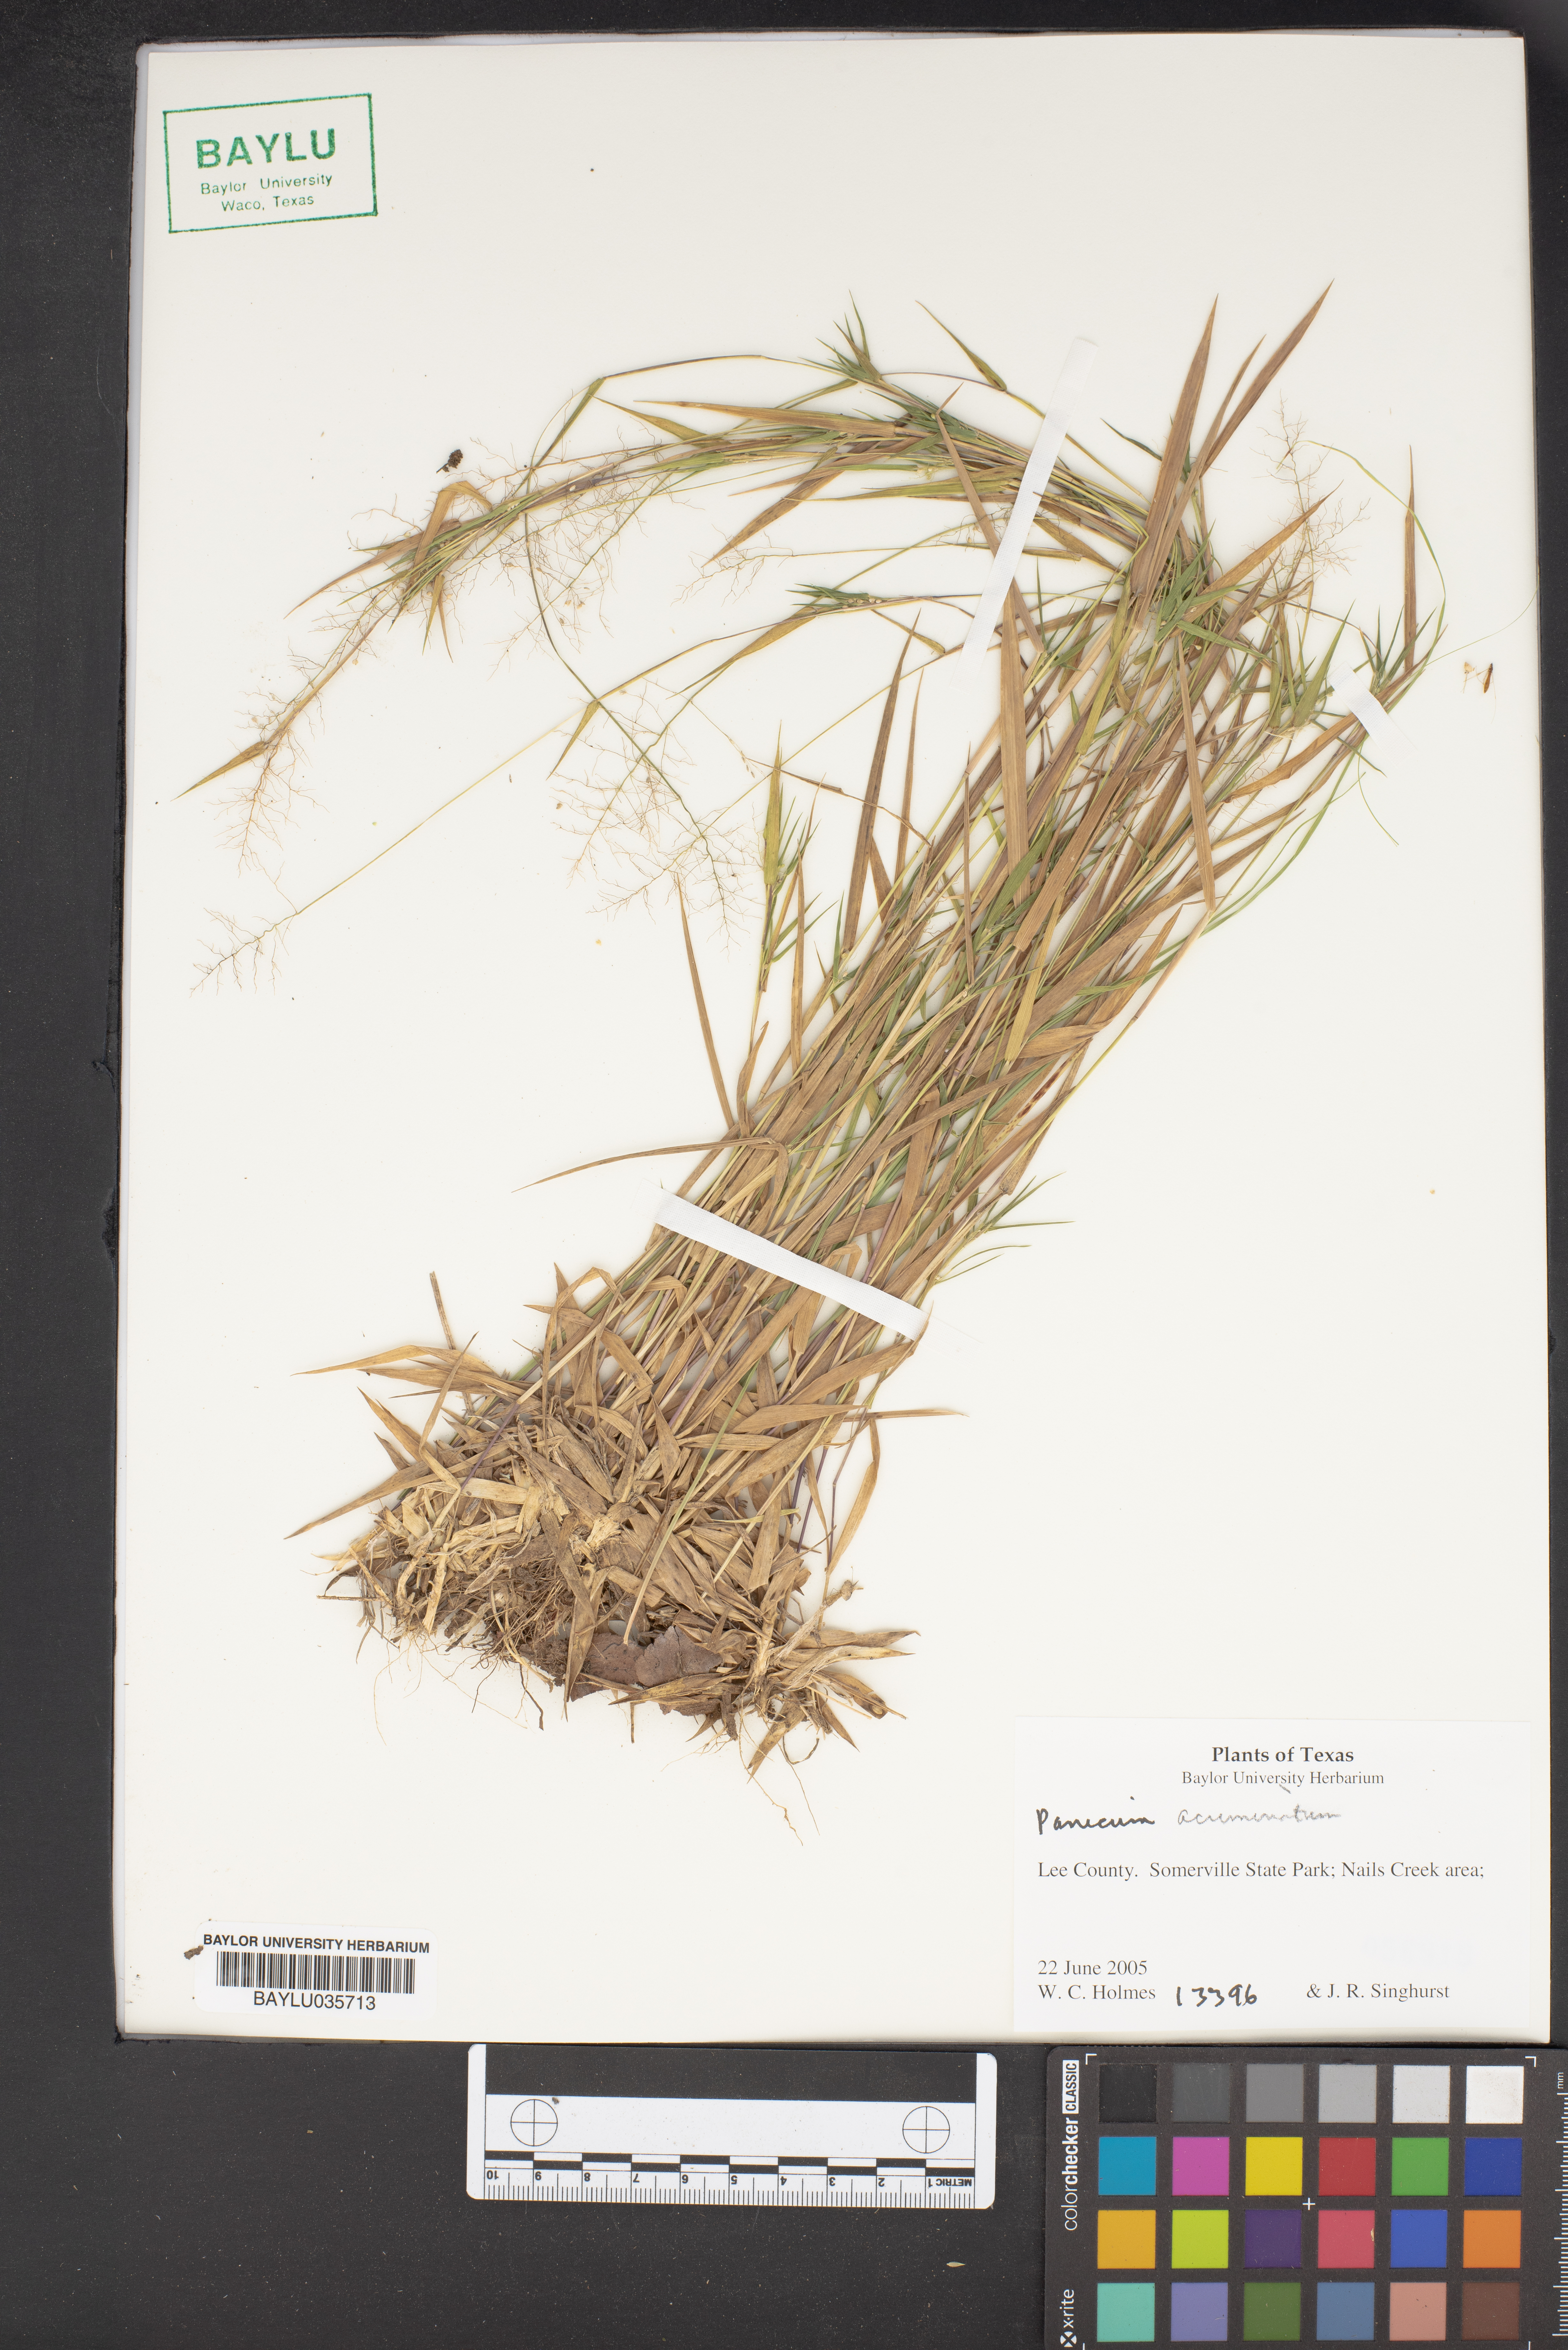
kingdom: Plantae
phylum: Tracheophyta
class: Liliopsida
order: Poales
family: Poaceae
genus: Dichanthelium
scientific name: Dichanthelium acuminatum
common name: Hairy panic grass
